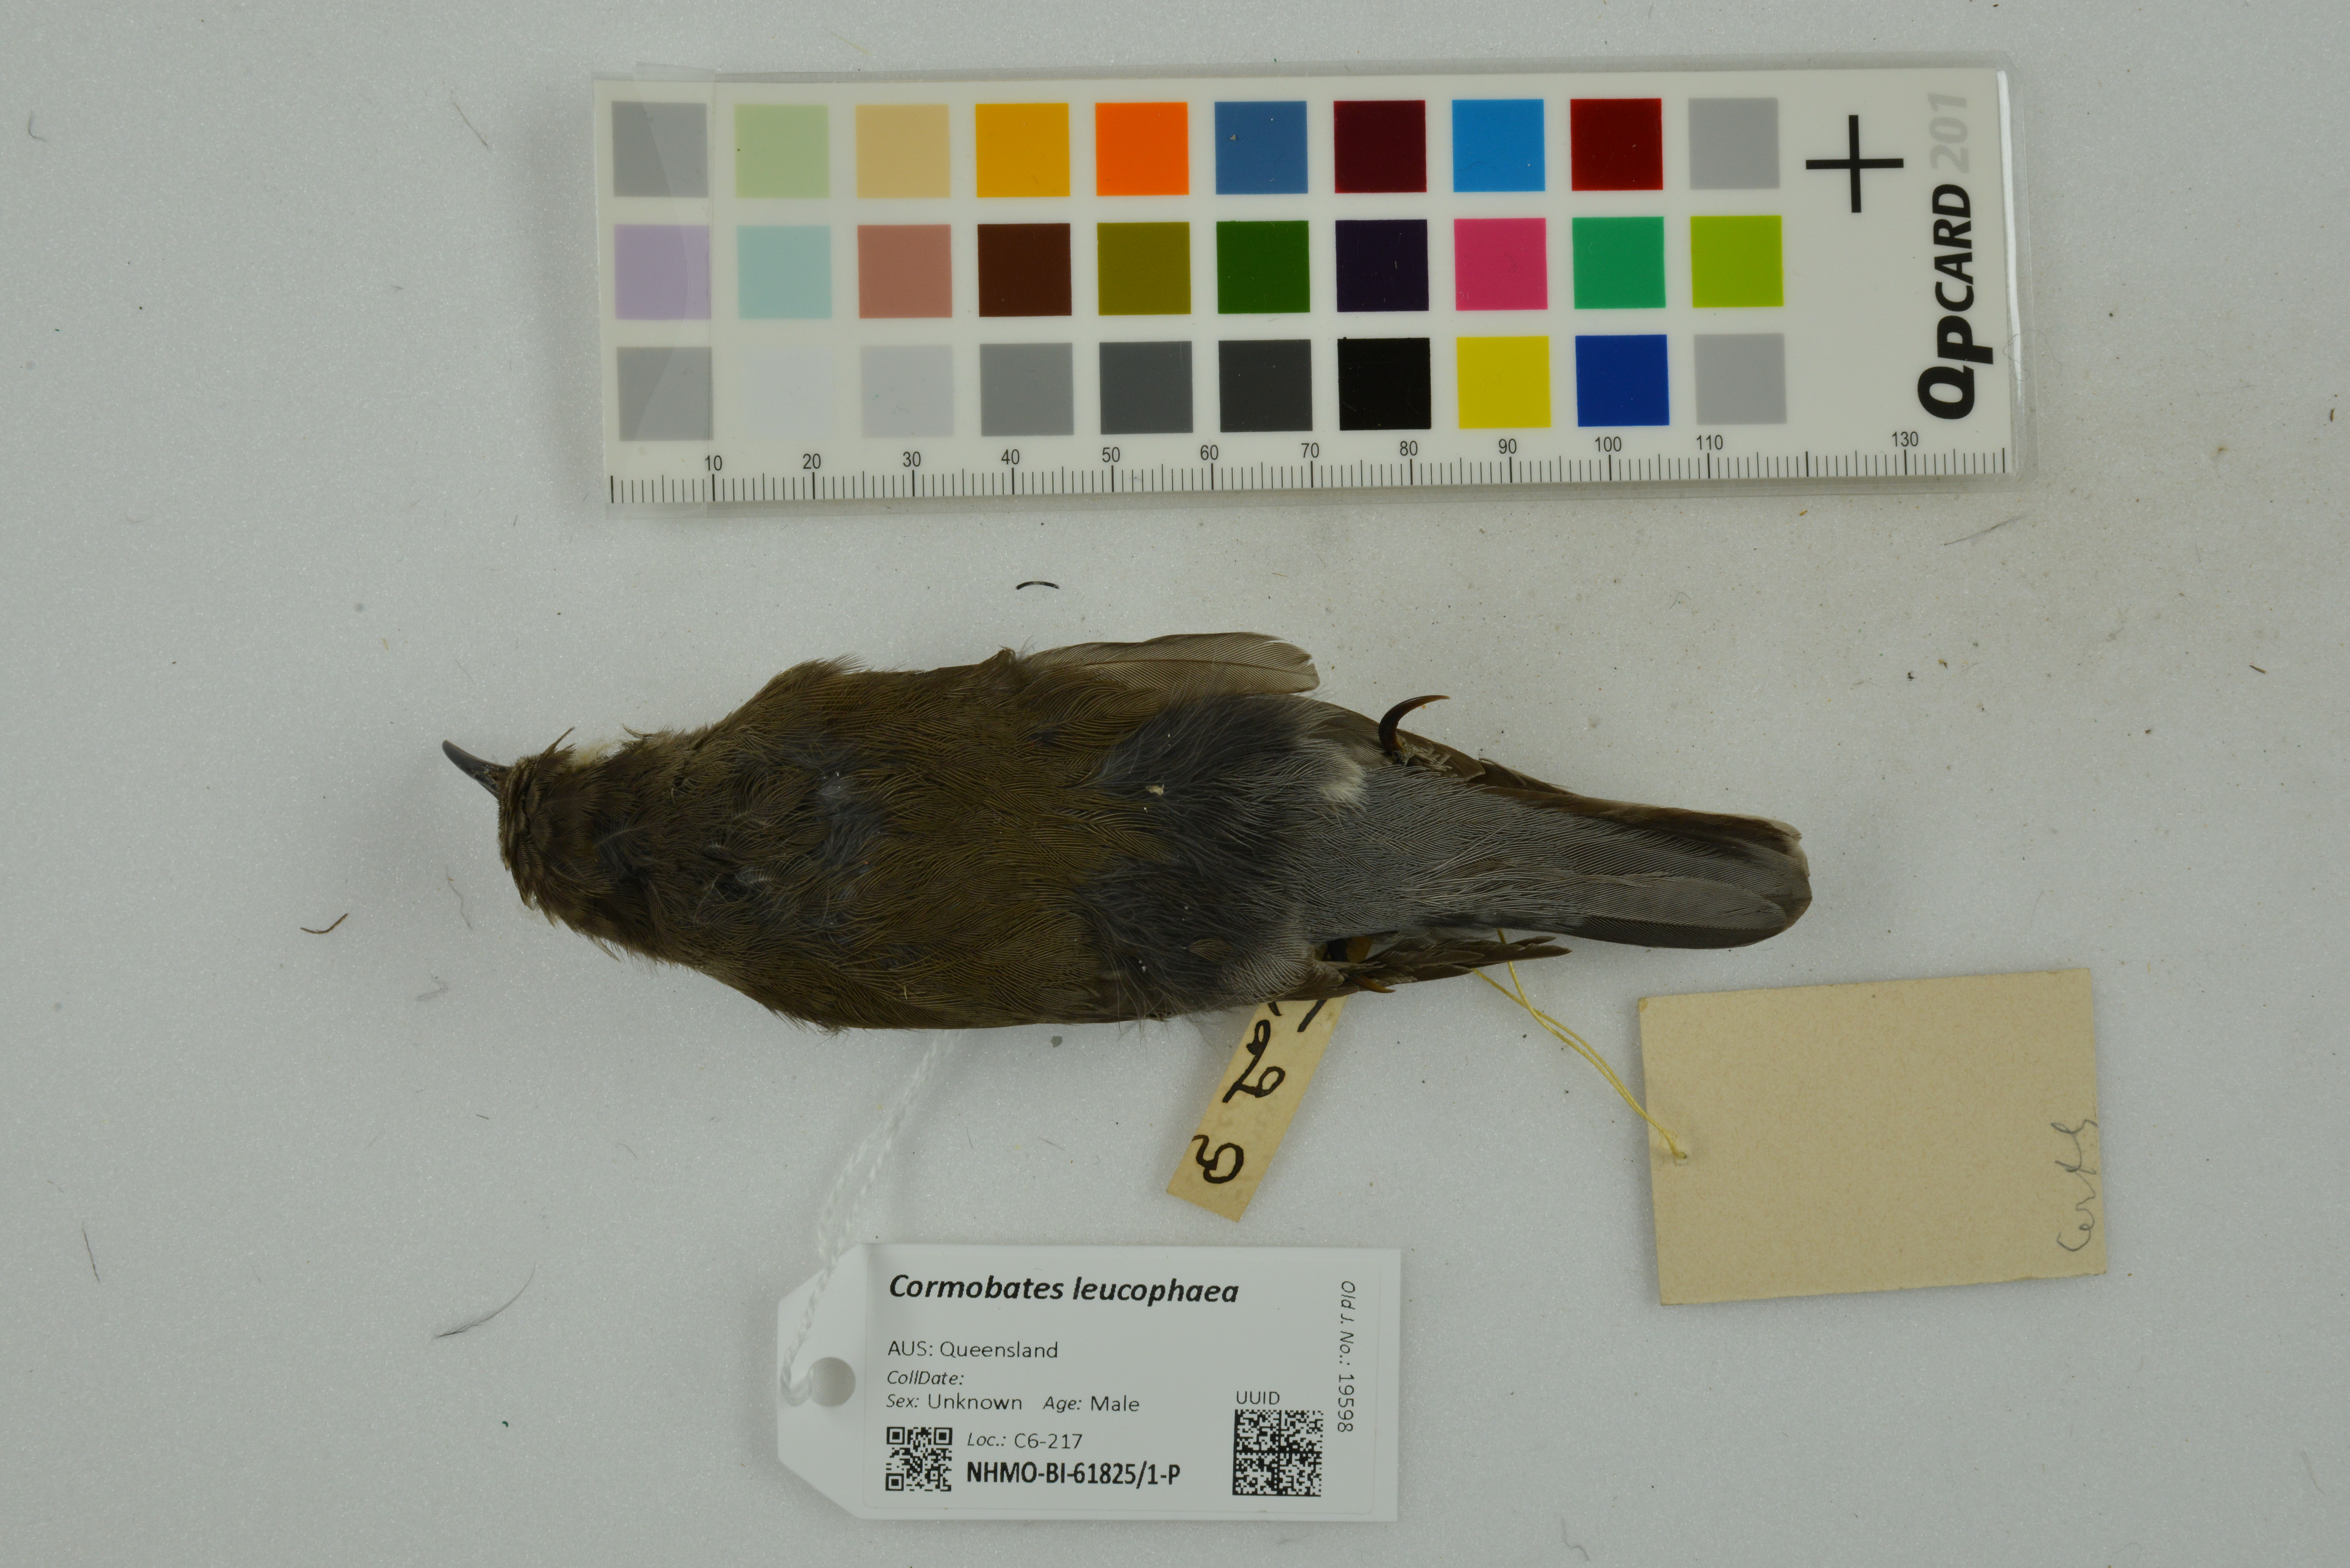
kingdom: Animalia
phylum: Chordata
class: Aves
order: Passeriformes
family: Climacteridae
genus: Cormobates
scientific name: Cormobates leucophaea
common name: White-throated treecreeper
